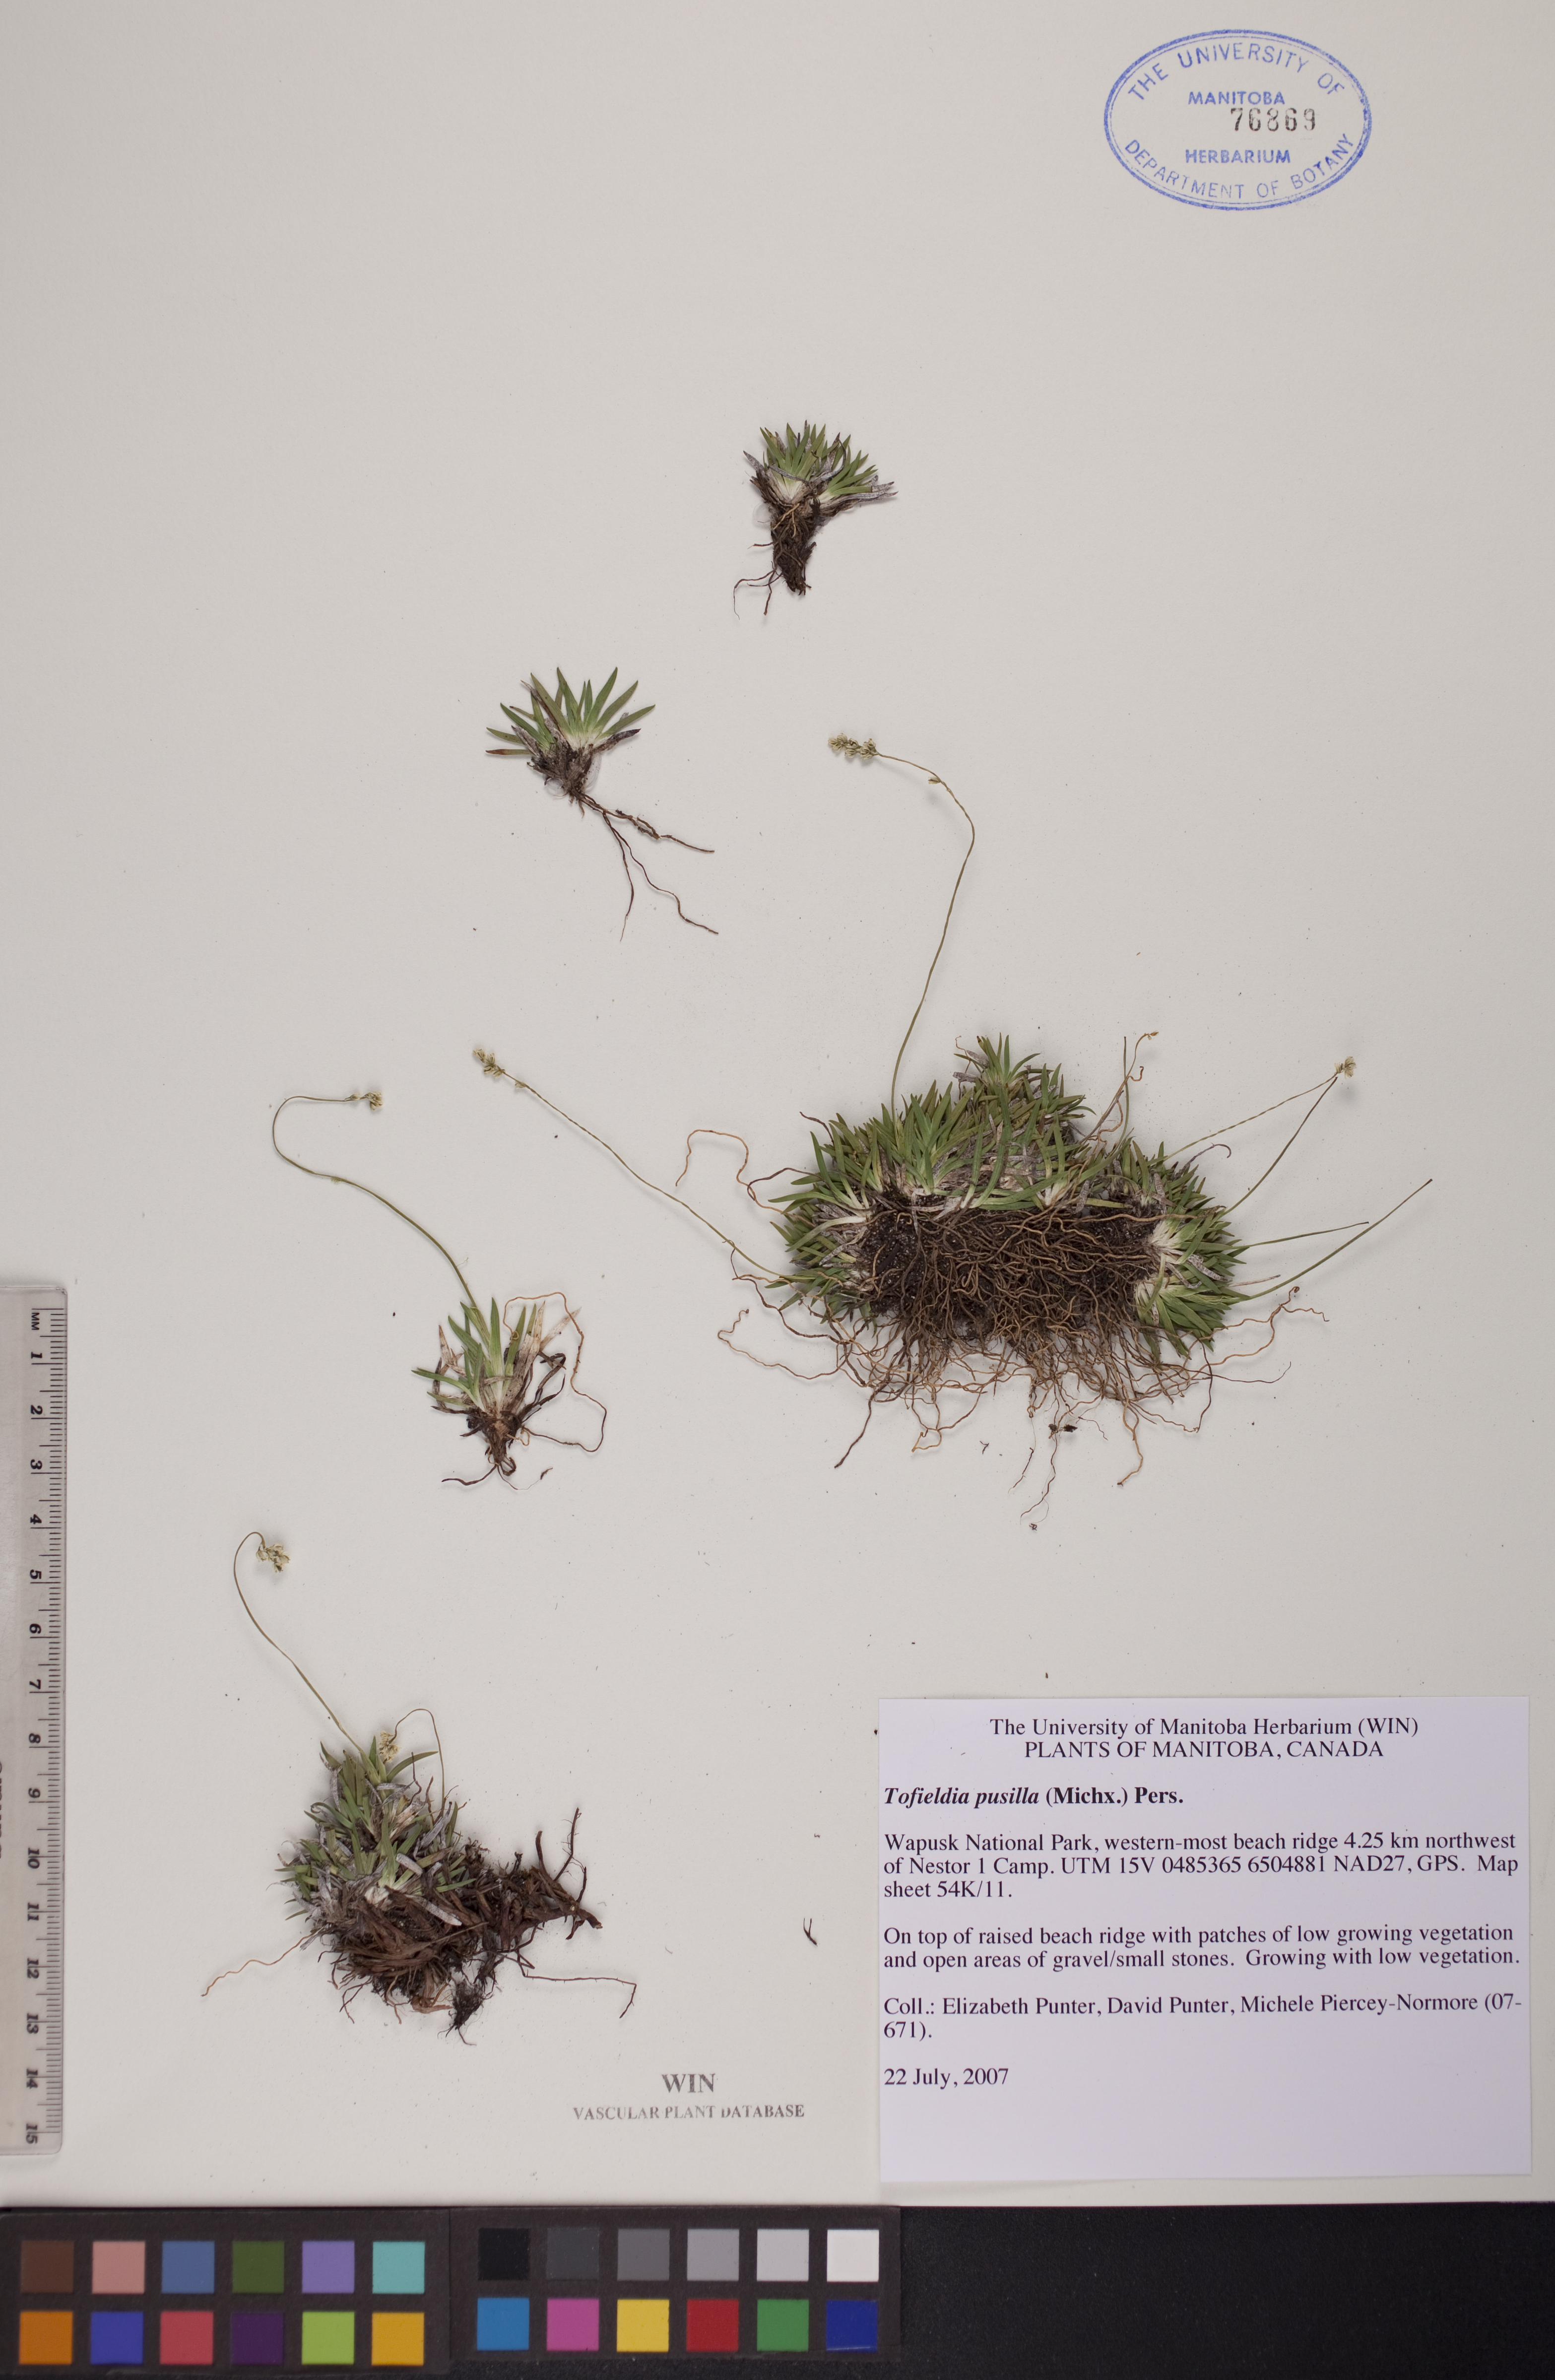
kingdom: Plantae
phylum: Tracheophyta
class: Liliopsida
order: Alismatales
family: Tofieldiaceae
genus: Tofieldia
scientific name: Tofieldia pusilla
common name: Scottish false asphodel
